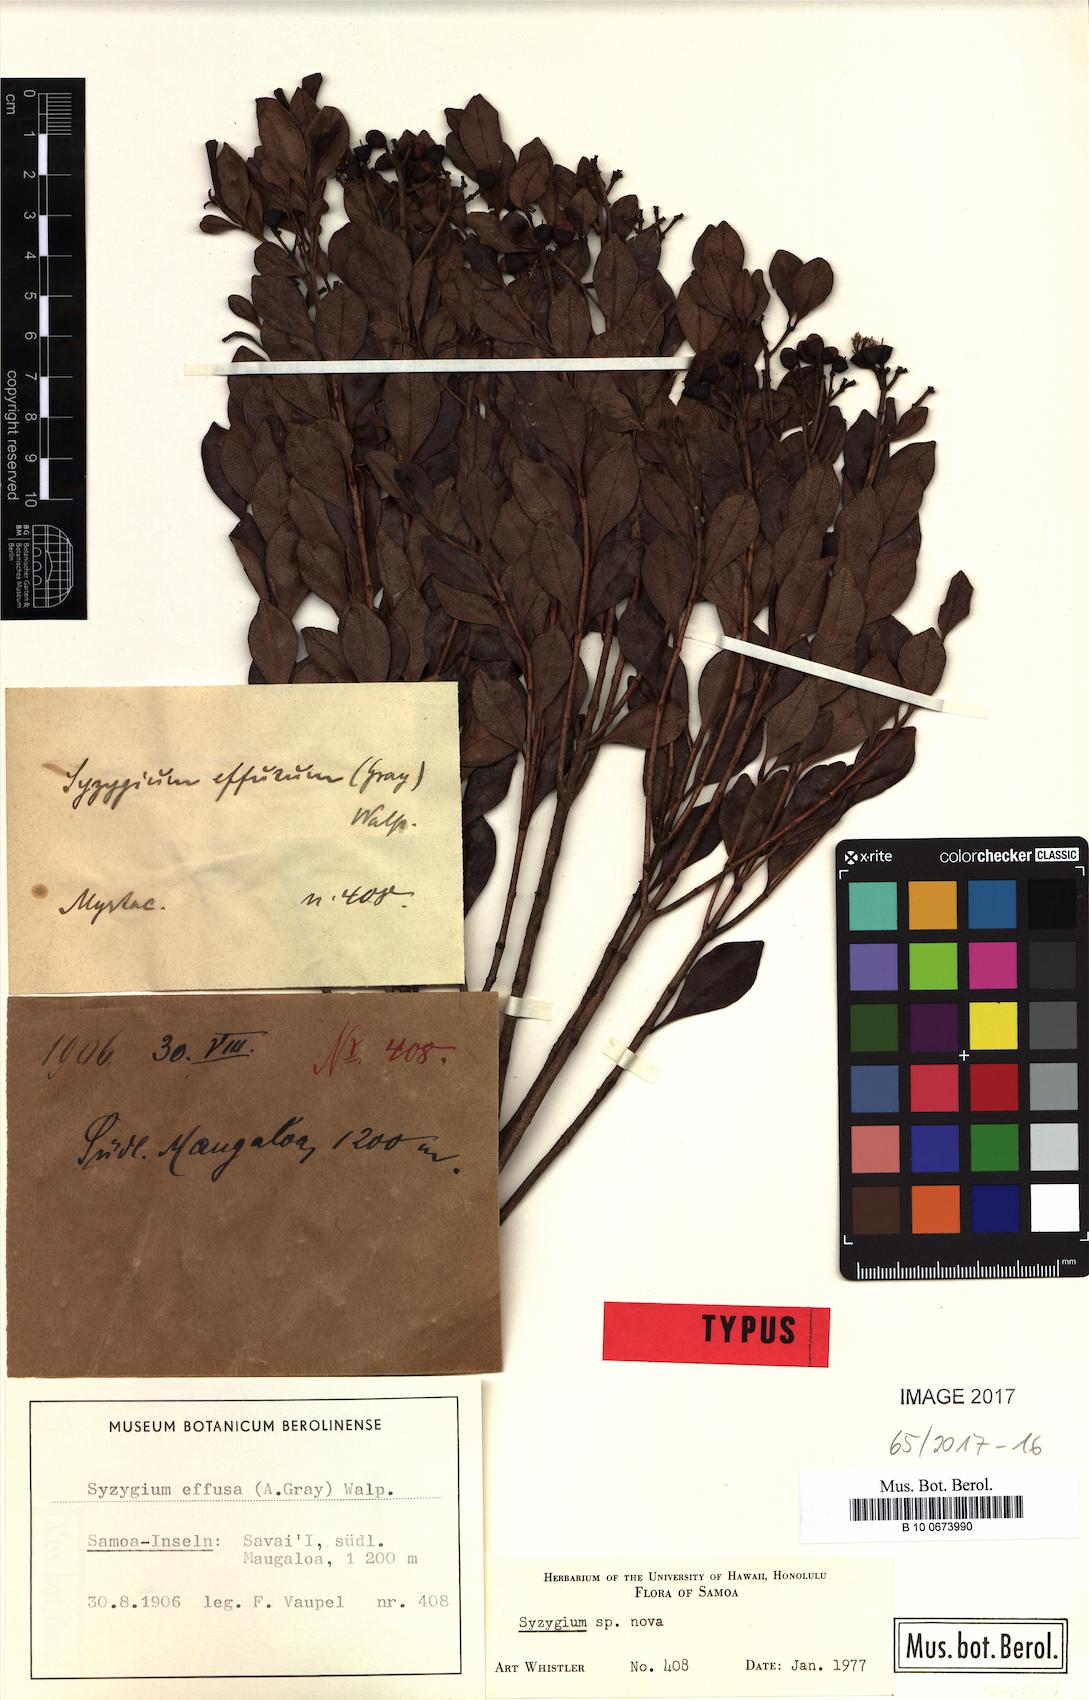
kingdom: Plantae
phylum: Tracheophyta
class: Magnoliopsida
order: Myrtales
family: Myrtaceae
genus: Syzygium
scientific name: Syzygium vaupelii
